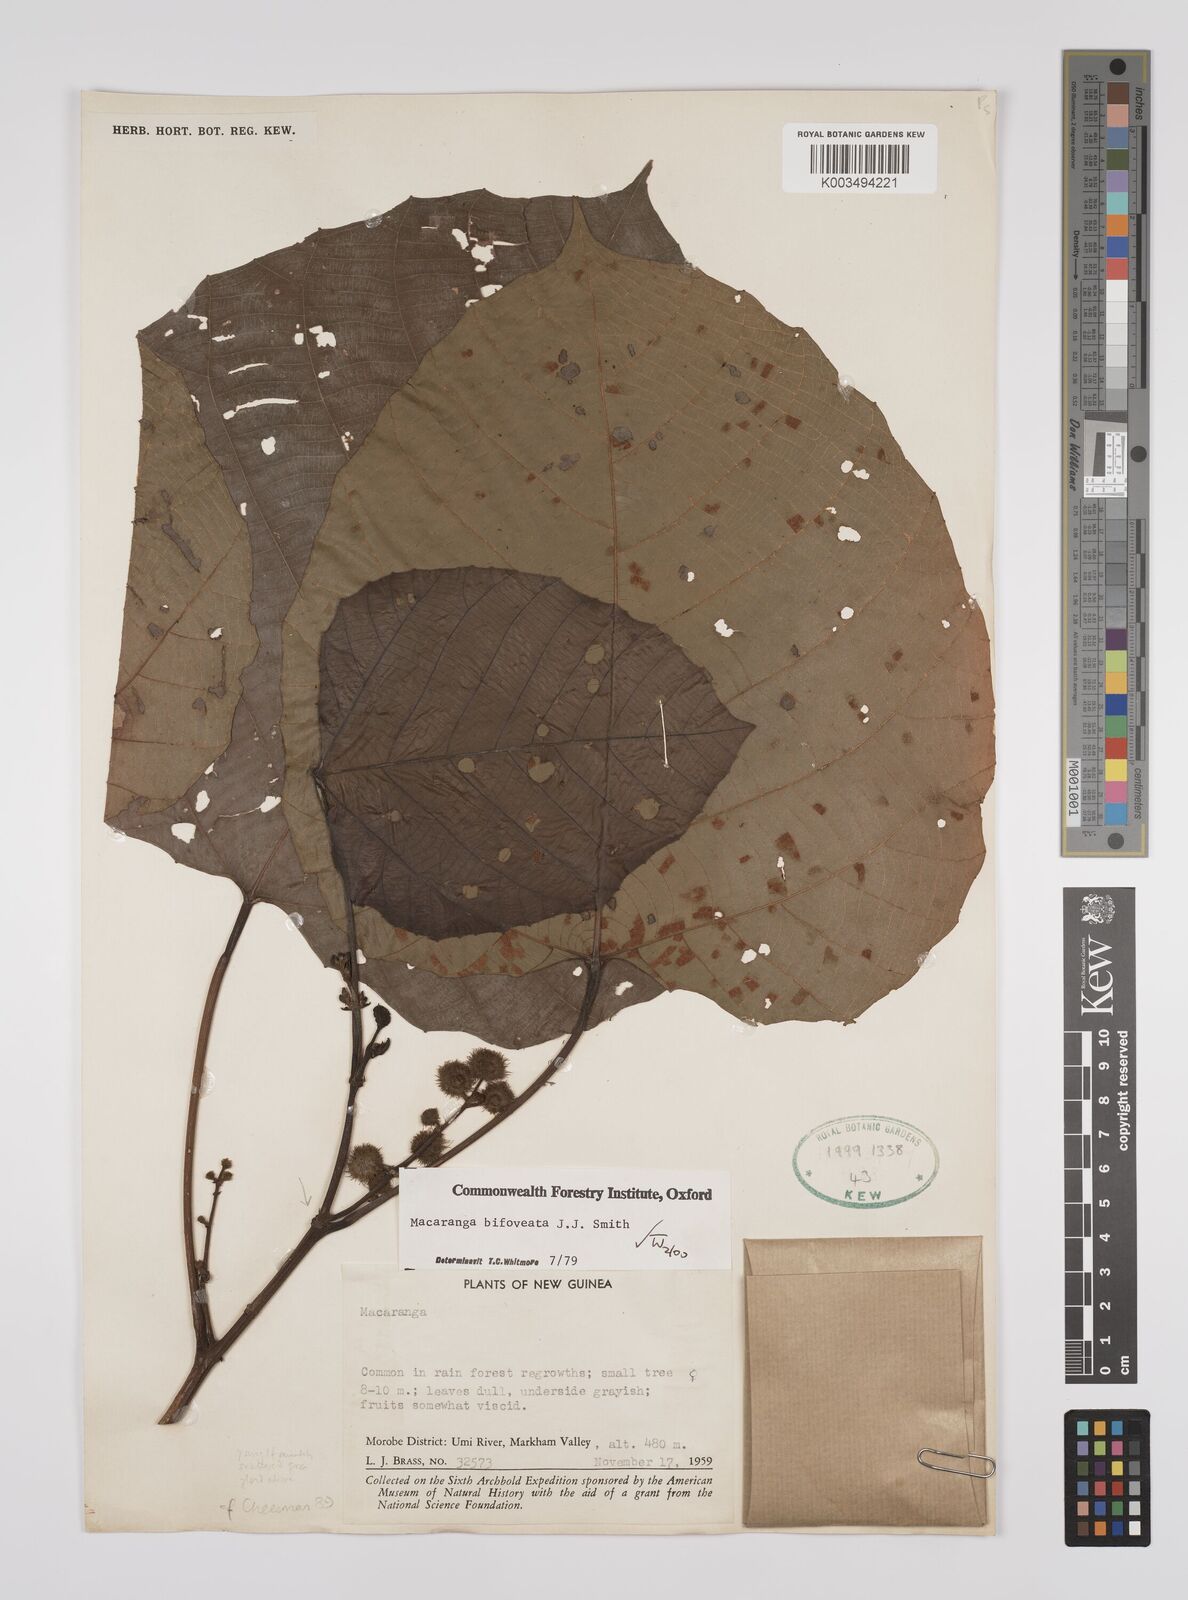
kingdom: Plantae
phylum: Tracheophyta
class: Magnoliopsida
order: Malpighiales
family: Euphorbiaceae
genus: Macaranga
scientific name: Macaranga bifoveata
